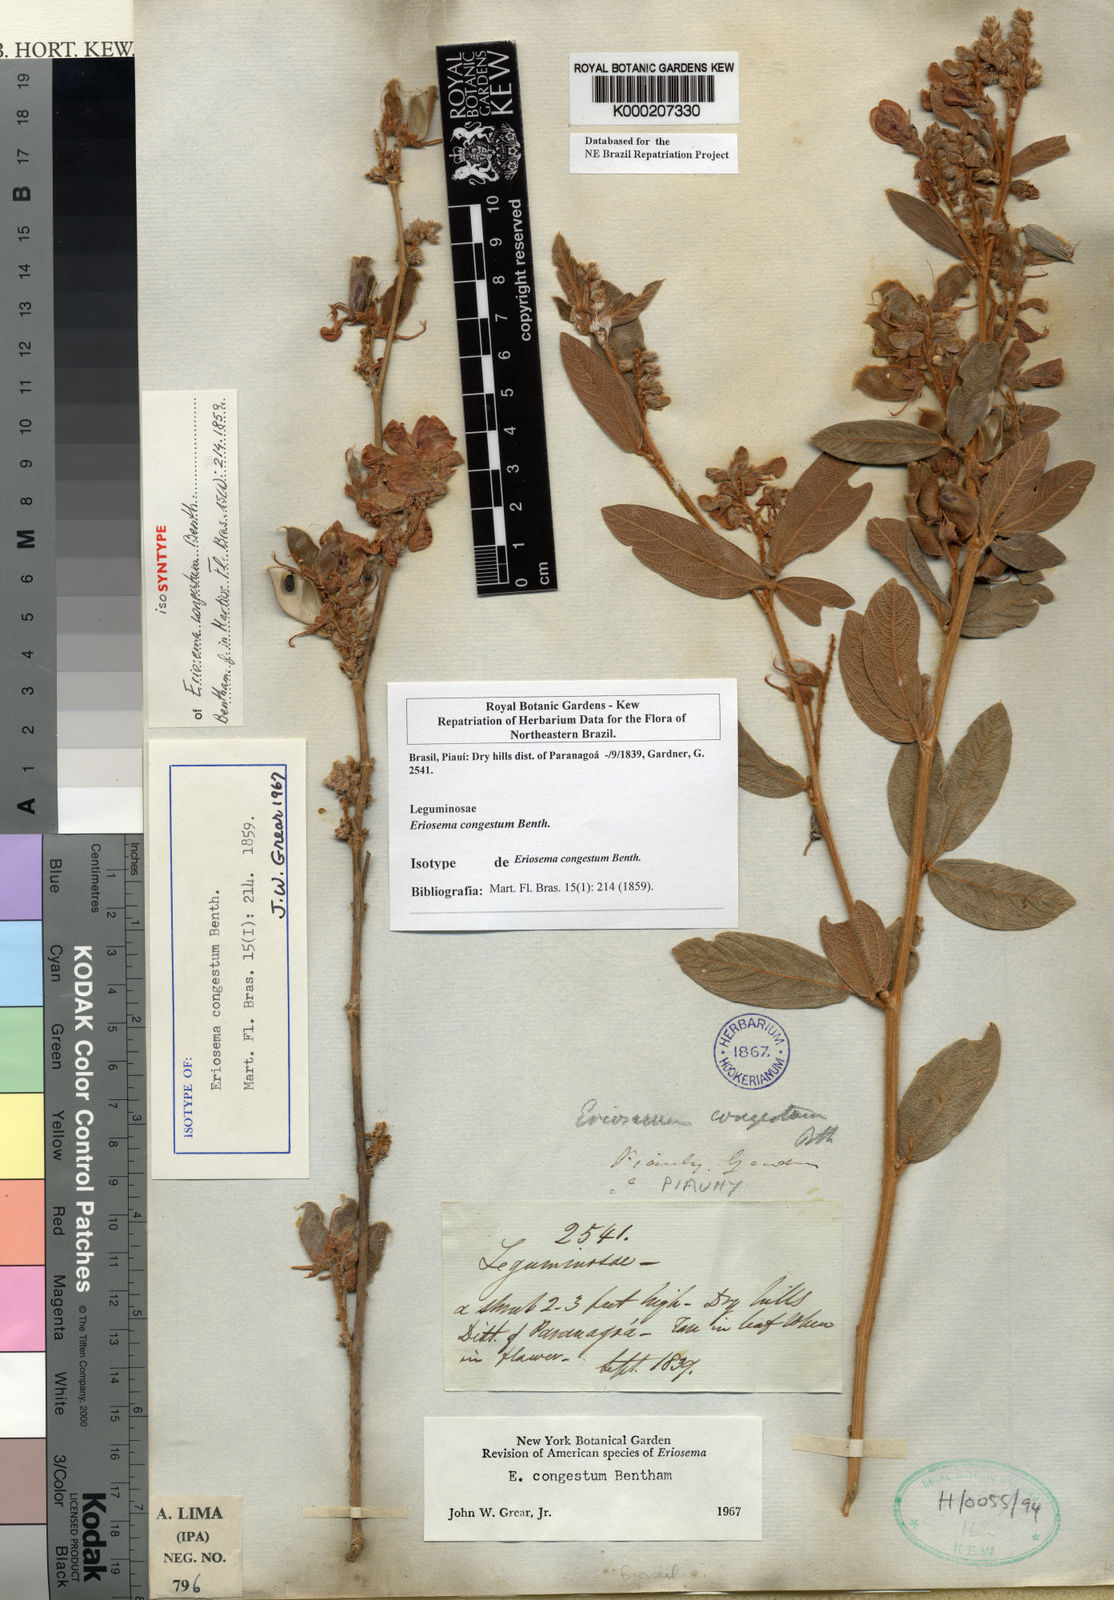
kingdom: Plantae
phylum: Tracheophyta
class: Magnoliopsida
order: Fabales
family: Fabaceae
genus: Eriosema
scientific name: Eriosema congestum
